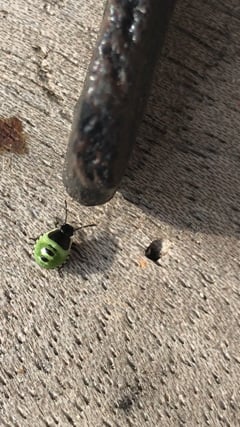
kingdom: Animalia
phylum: Arthropoda
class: Insecta
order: Hemiptera
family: Pentatomidae
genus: Palomena
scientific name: Palomena prasina
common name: Green shieldbug
